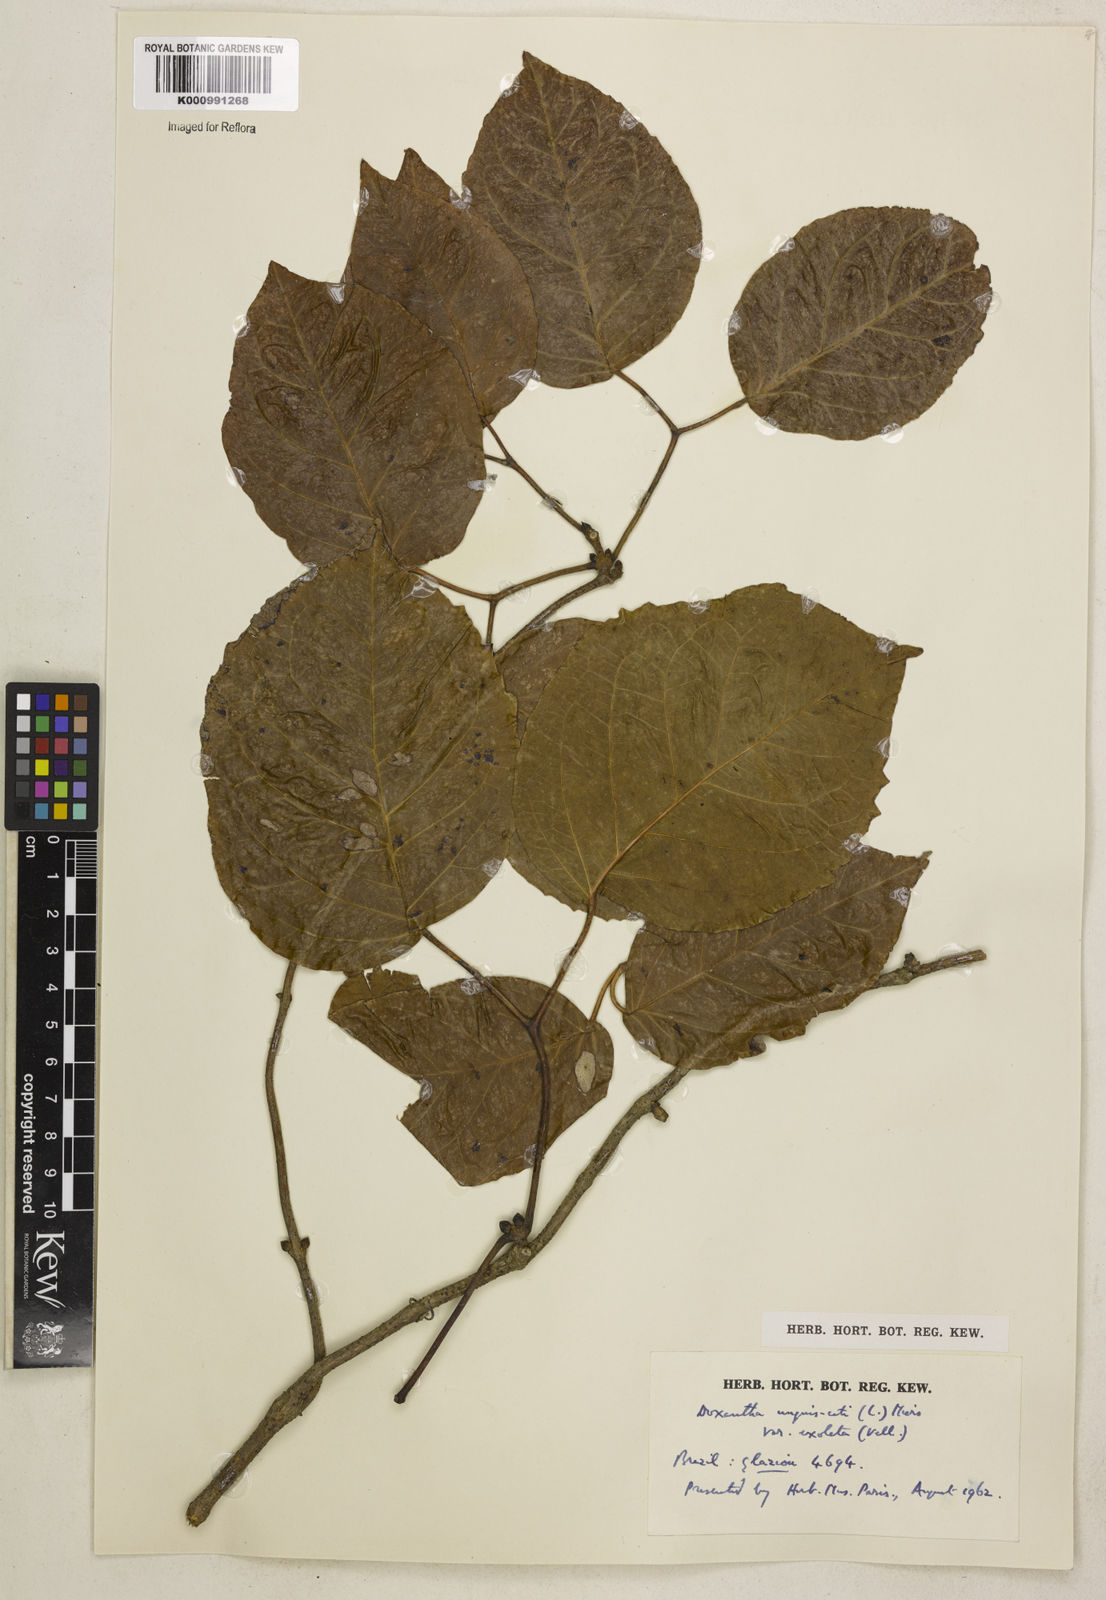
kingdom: Plantae
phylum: Tracheophyta
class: Magnoliopsida
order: Lamiales
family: Bignoniaceae
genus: Dolichandra
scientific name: Dolichandra unguis-cati
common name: Catclaw vine
